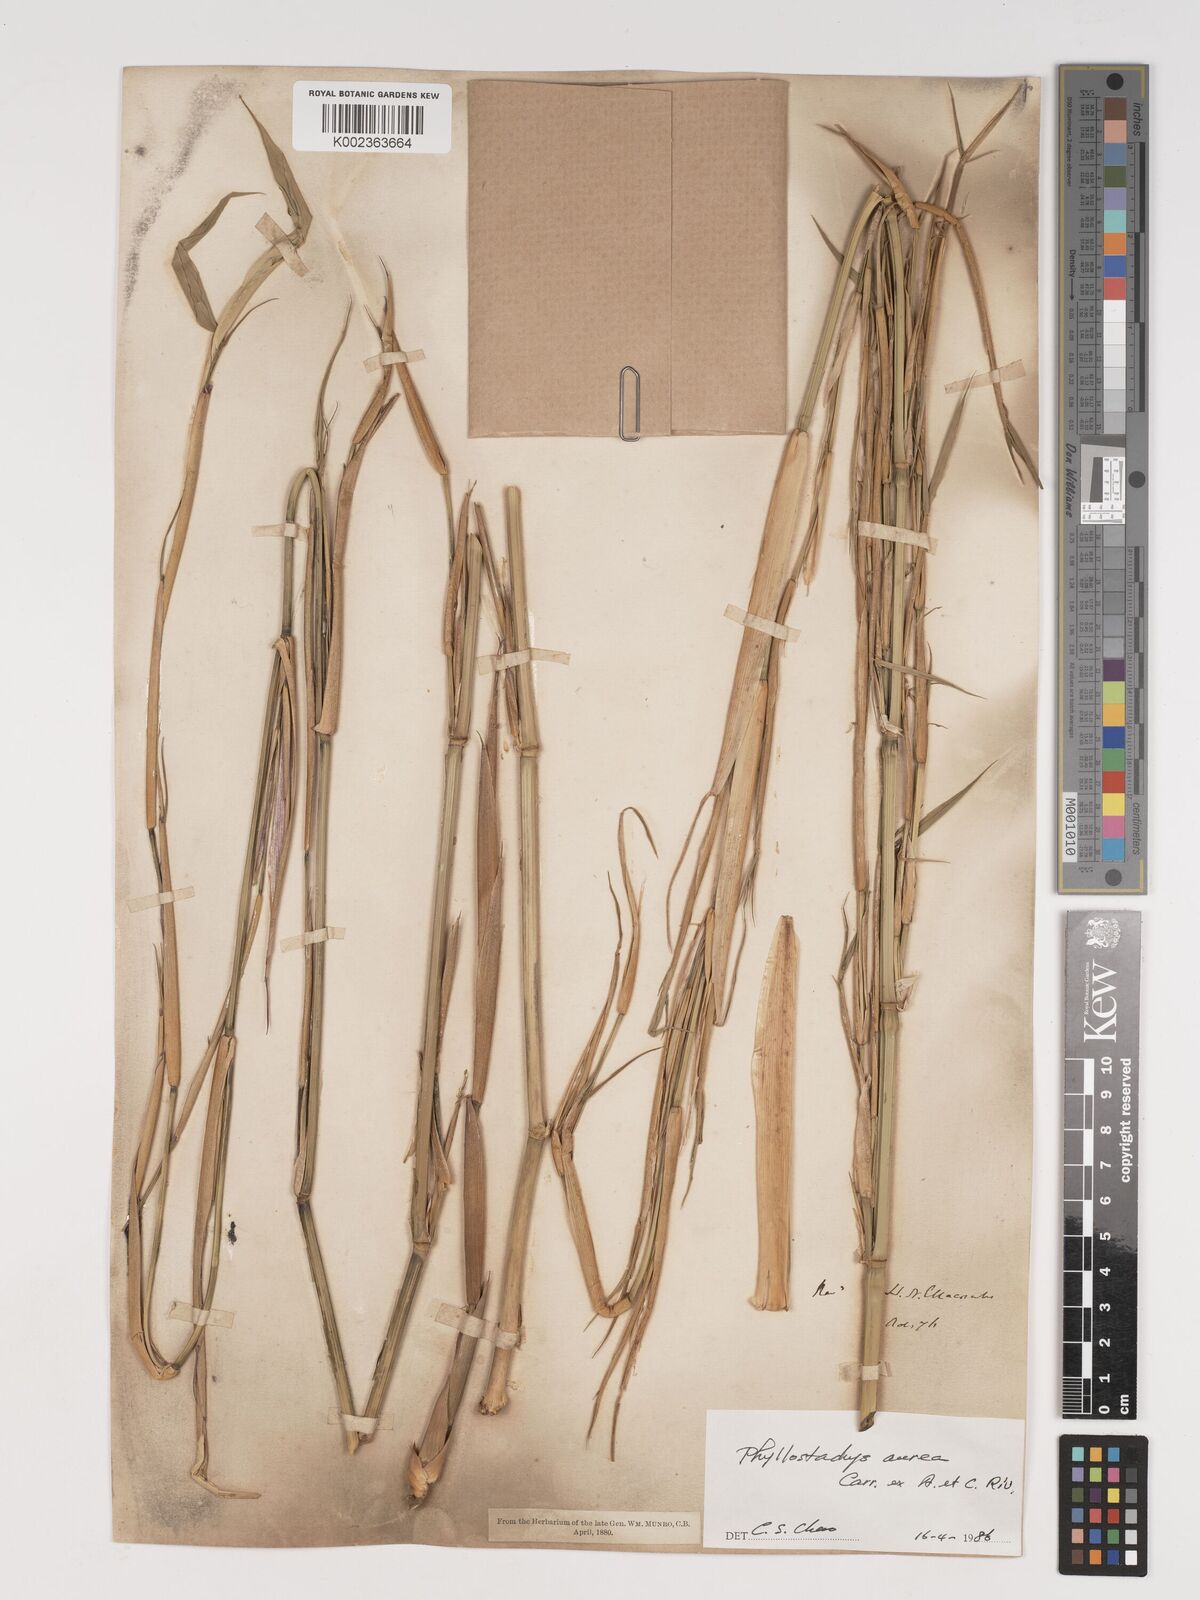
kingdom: Plantae
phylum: Tracheophyta
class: Liliopsida
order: Poales
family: Poaceae
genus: Phyllostachys
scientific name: Phyllostachys aurea
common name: Golden bamboo
